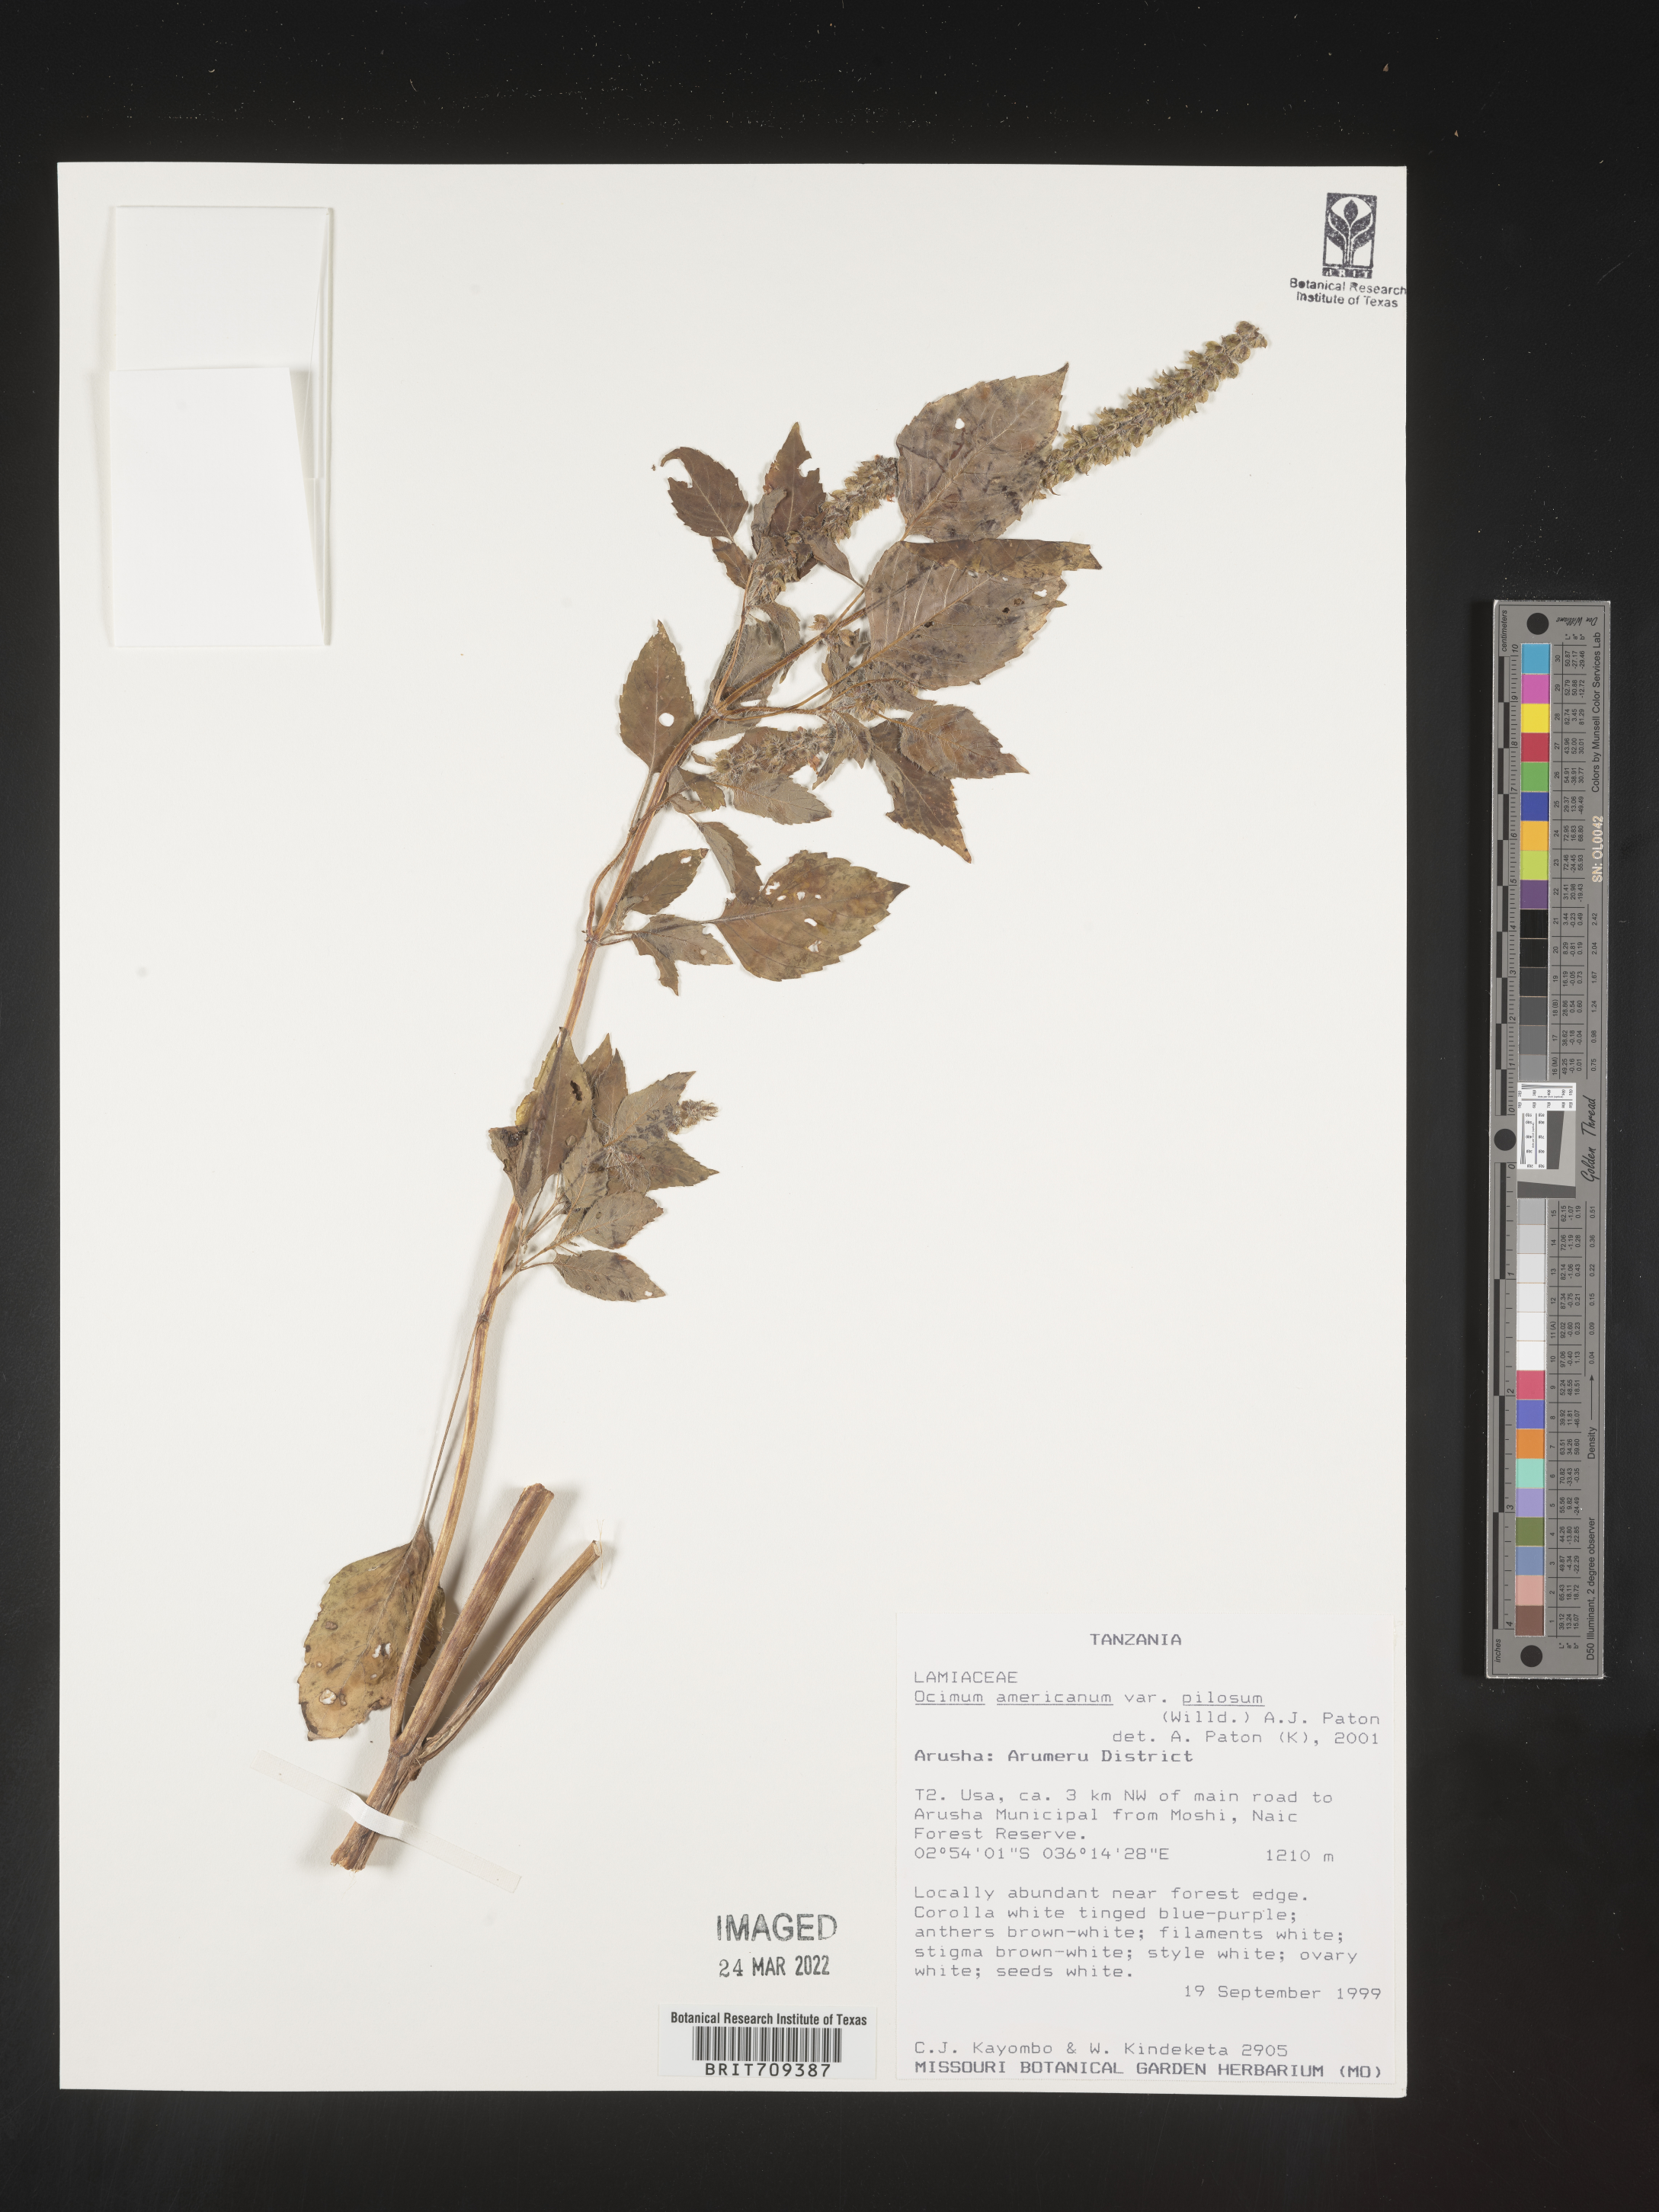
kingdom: Plantae
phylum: Tracheophyta
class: Magnoliopsida
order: Lamiales
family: Lamiaceae
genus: Ocimum
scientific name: Ocimum
